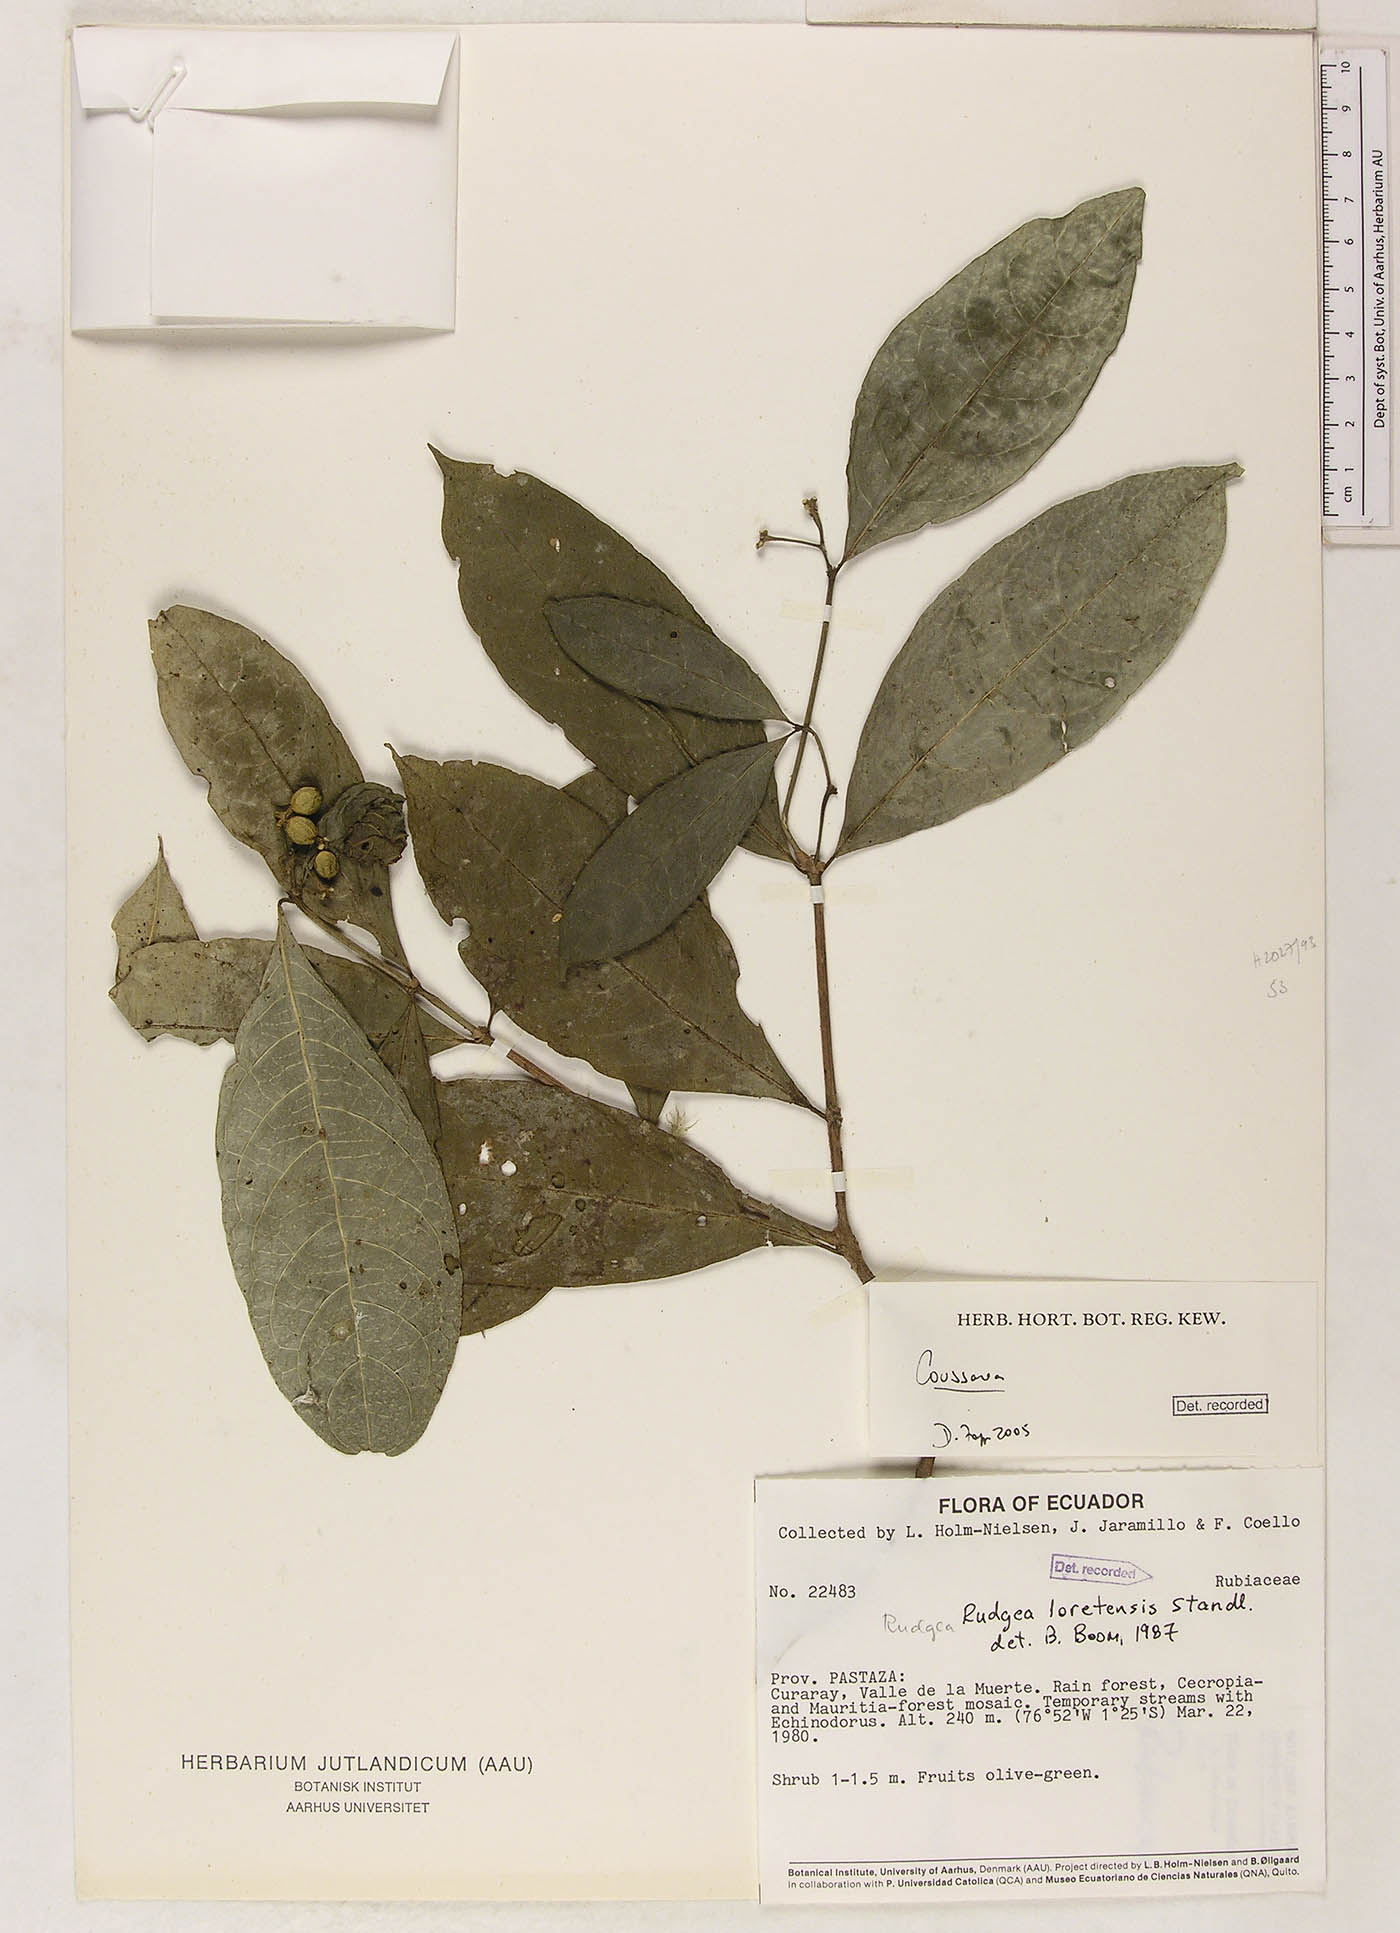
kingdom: Plantae
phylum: Tracheophyta
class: Magnoliopsida
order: Gentianales
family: Rubiaceae
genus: Coussarea
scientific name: Coussarea
